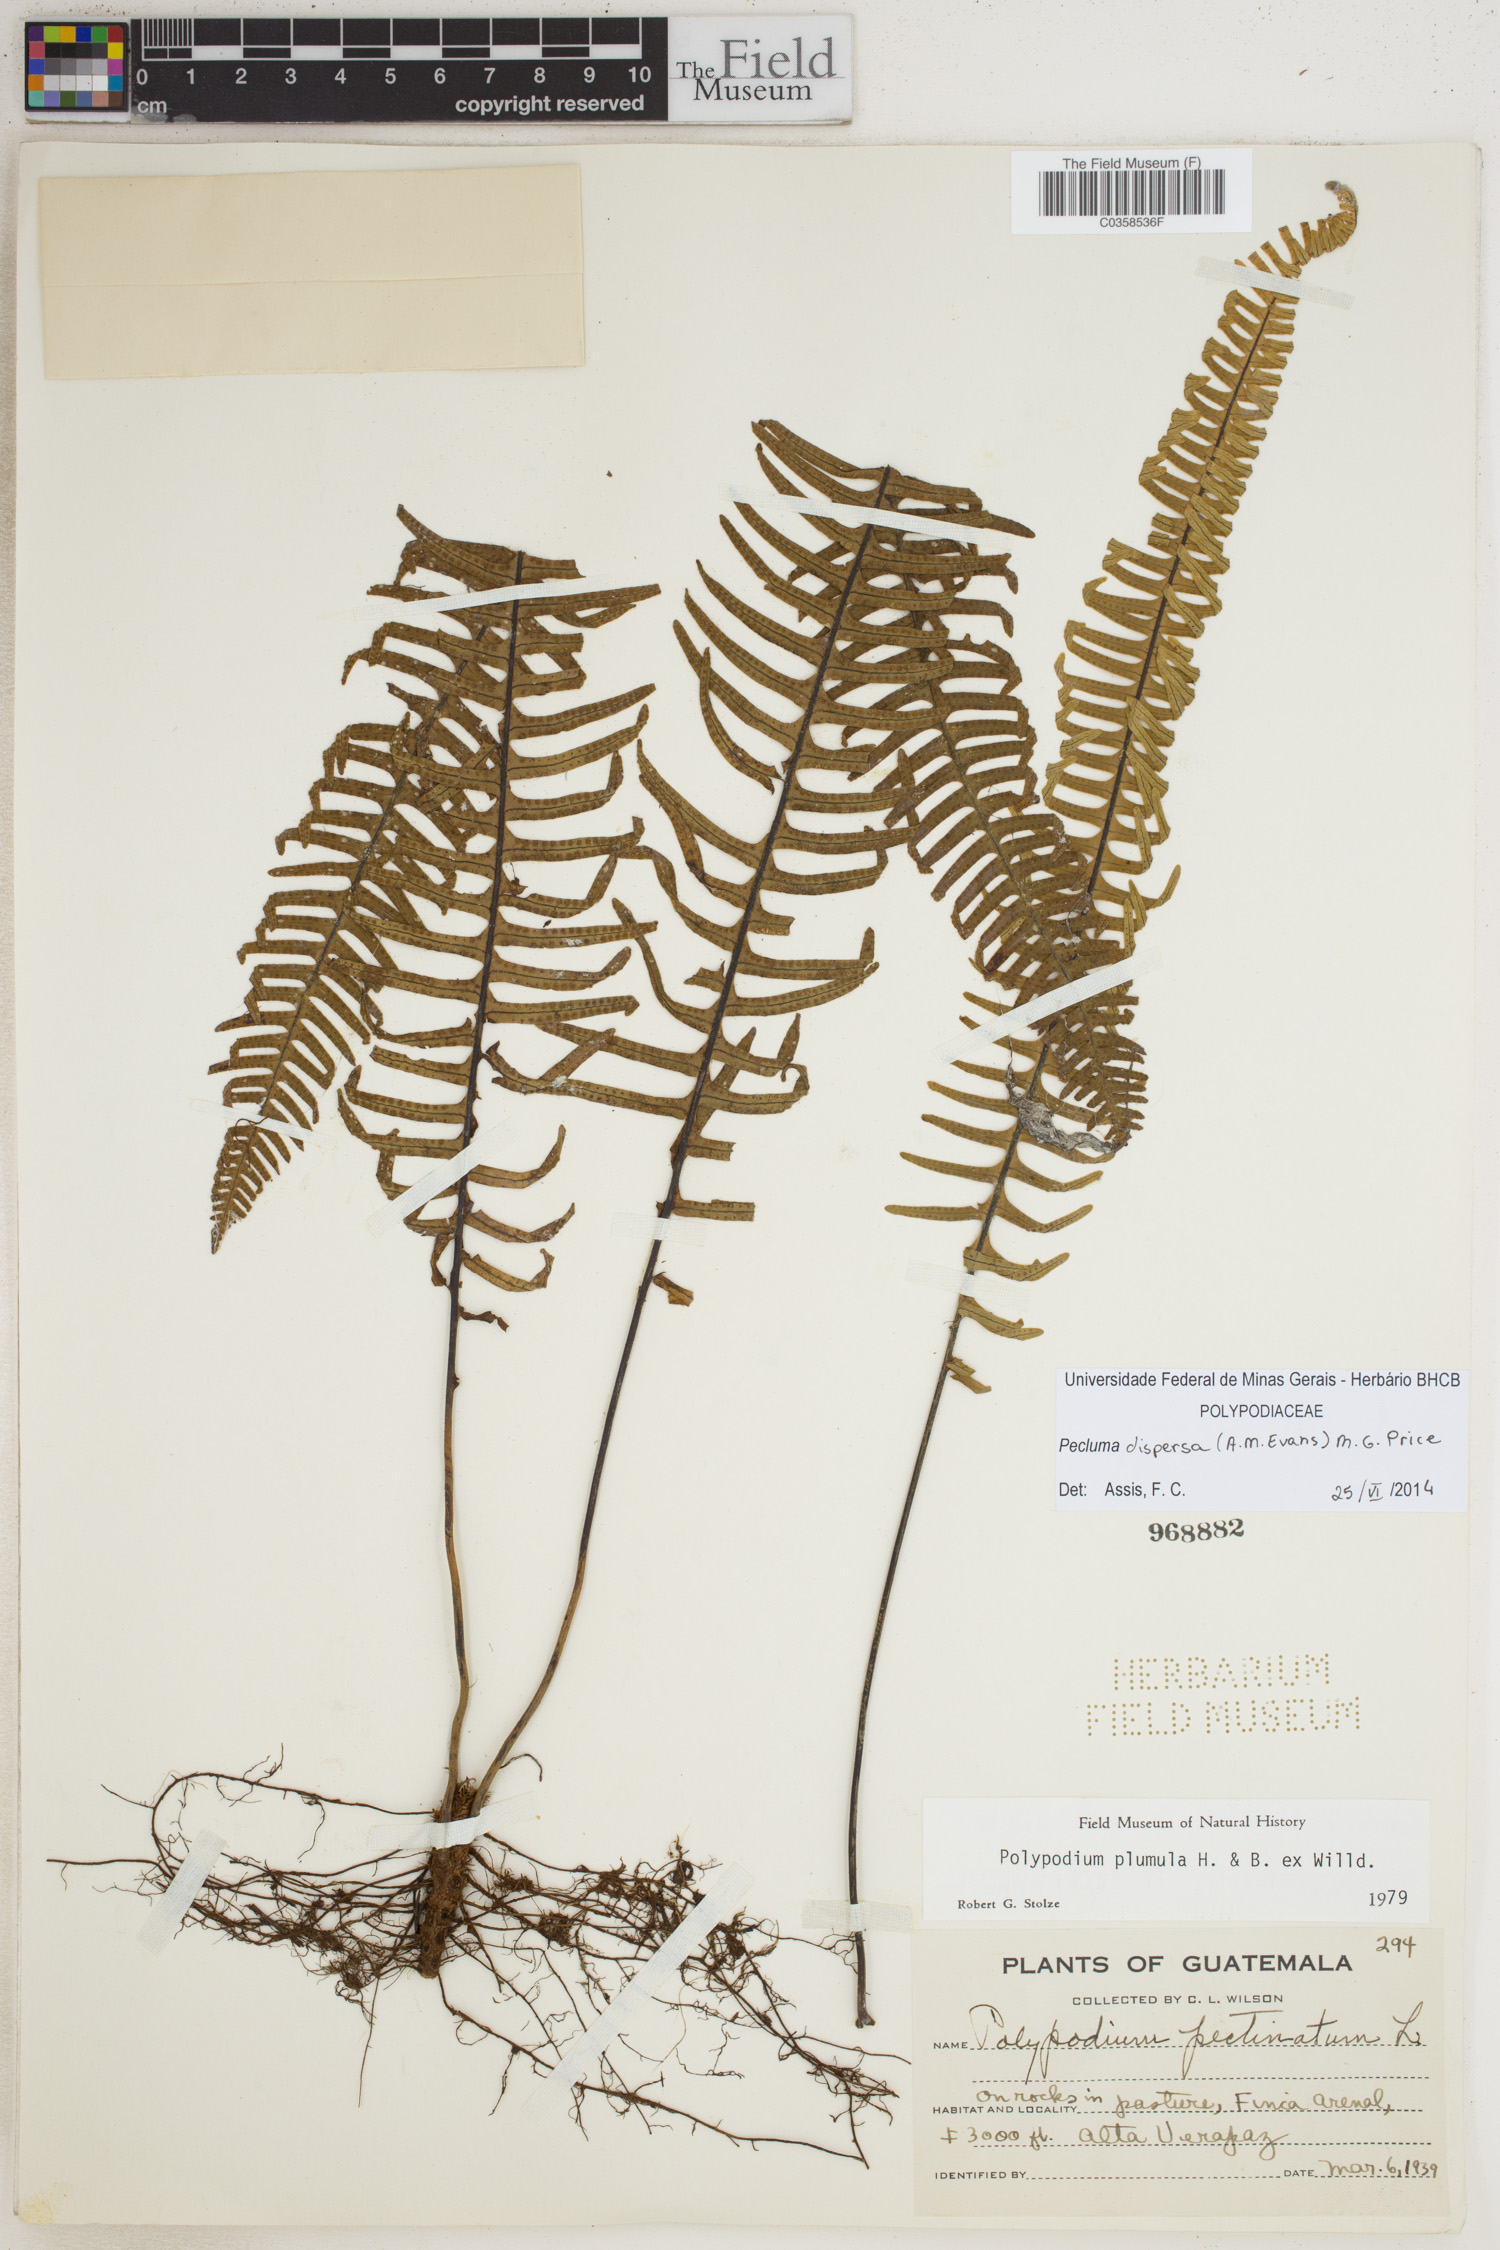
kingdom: Plantae
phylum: Tracheophyta
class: Polypodiopsida
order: Polypodiales
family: Polypodiaceae
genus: Pecluma
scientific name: Pecluma dispersa
